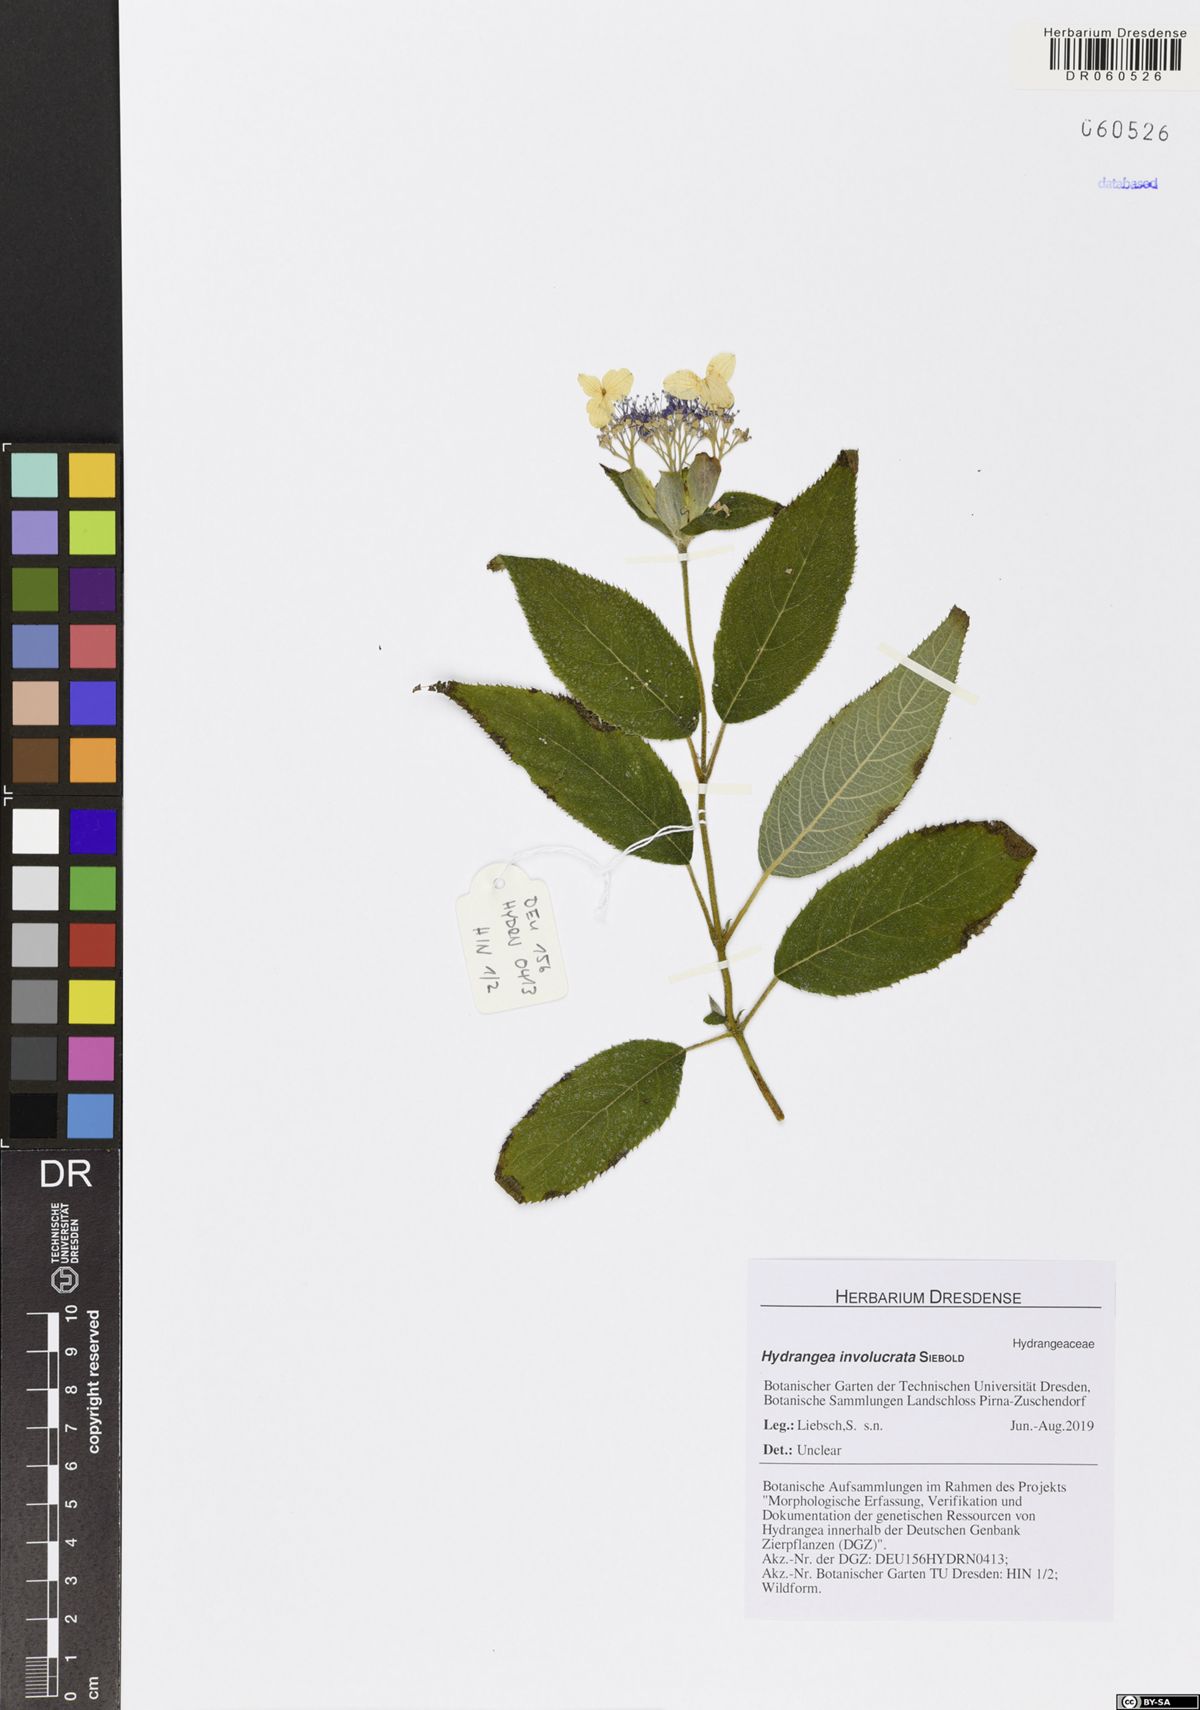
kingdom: Plantae
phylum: Tracheophyta
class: Magnoliopsida
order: Cornales
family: Hydrangeaceae
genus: Hydrangea
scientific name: Hydrangea involucrata
